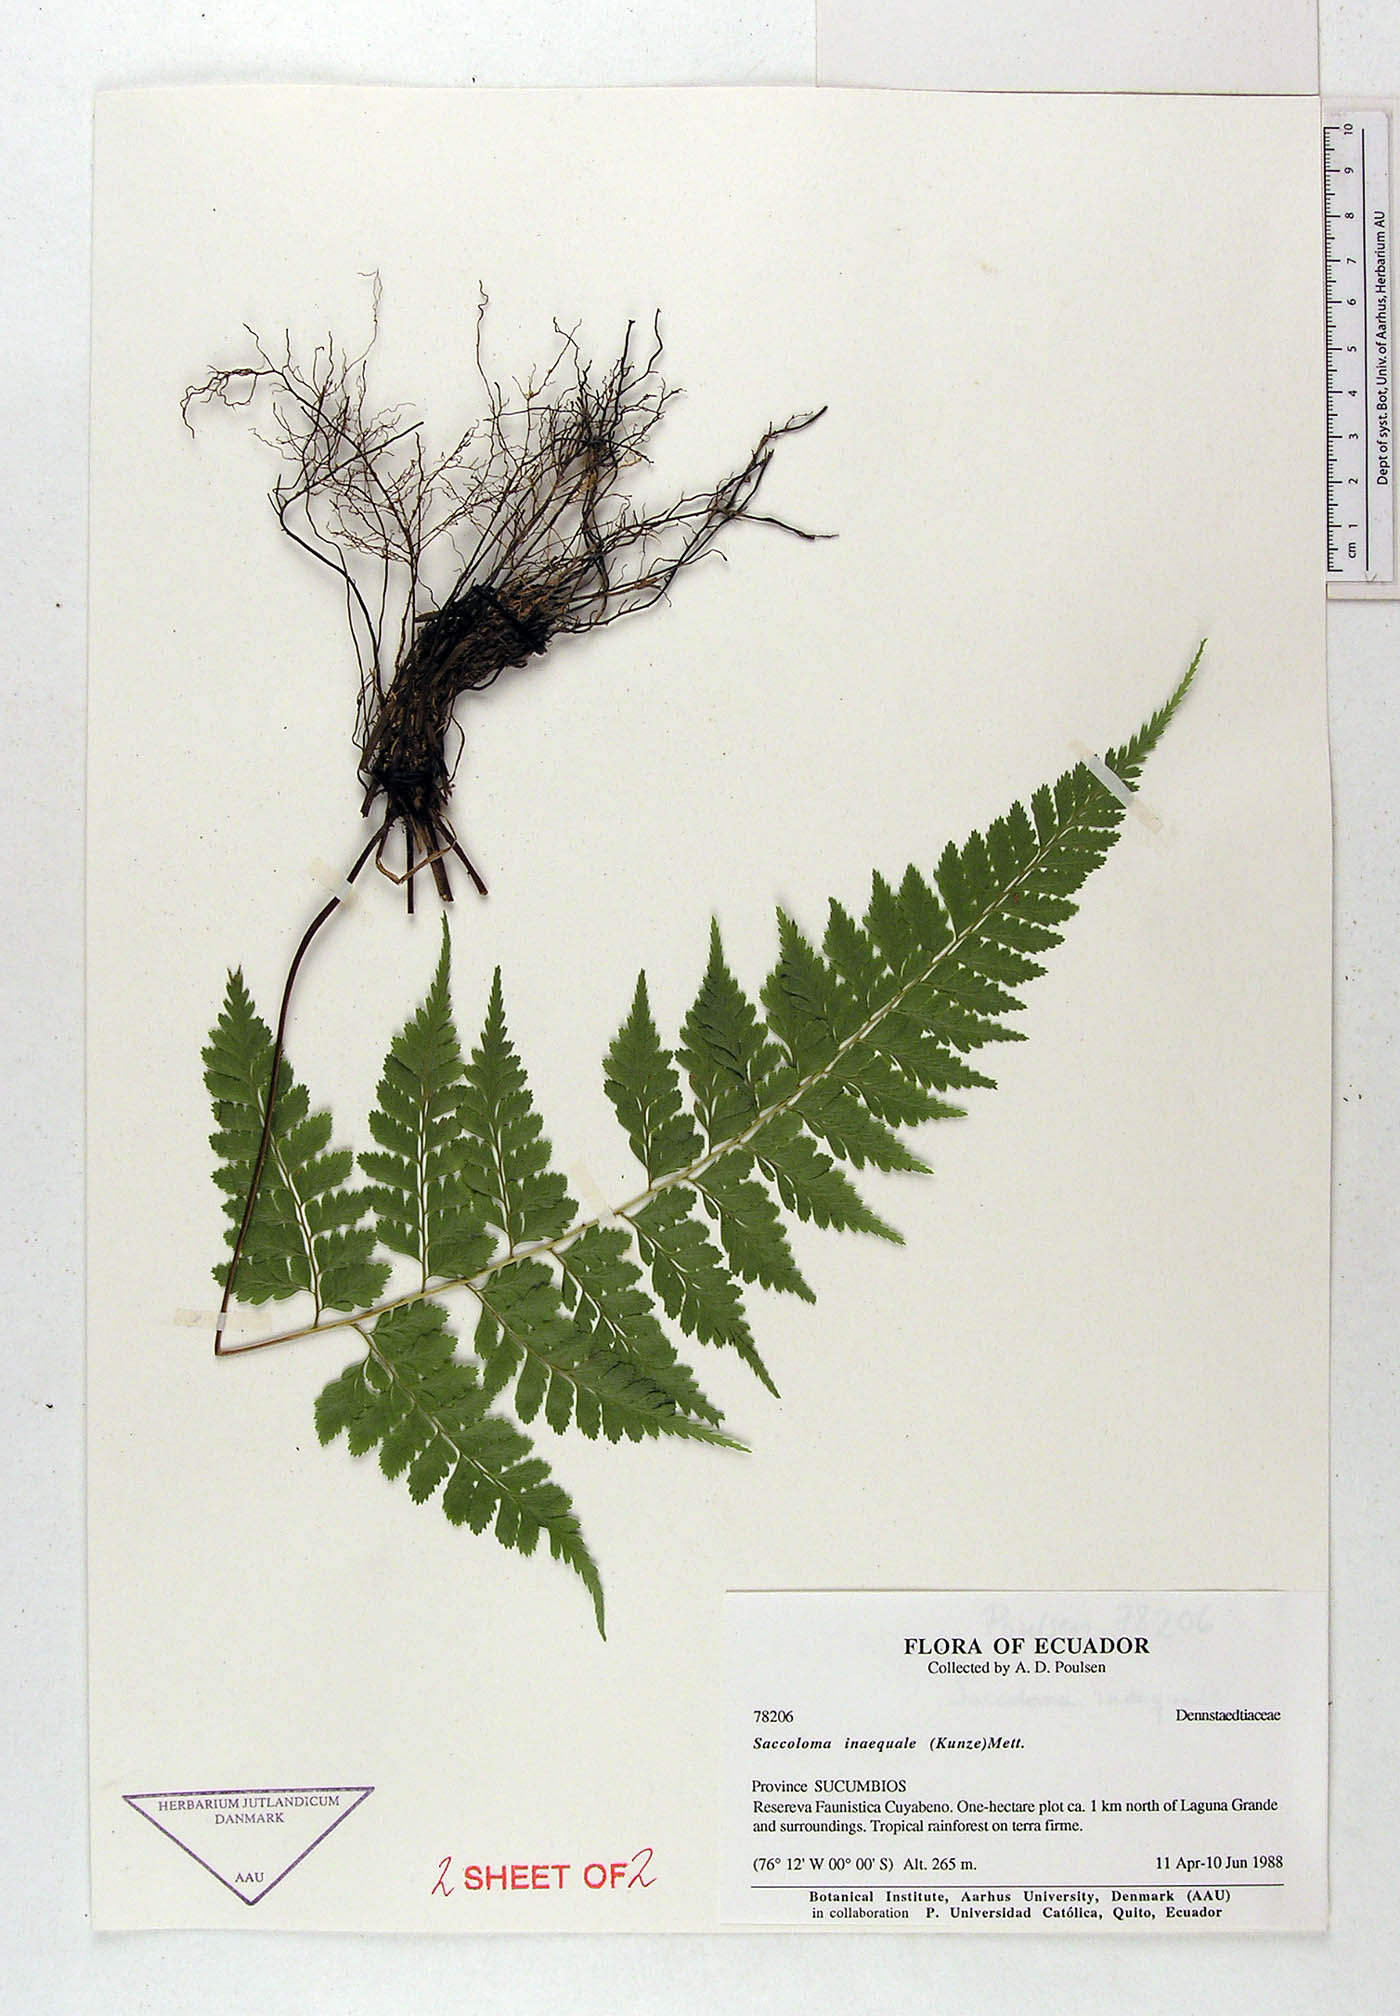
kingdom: Plantae
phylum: Tracheophyta
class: Polypodiopsida
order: Polypodiales
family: Saccolomataceae
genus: Saccoloma
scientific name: Saccoloma inaequale
